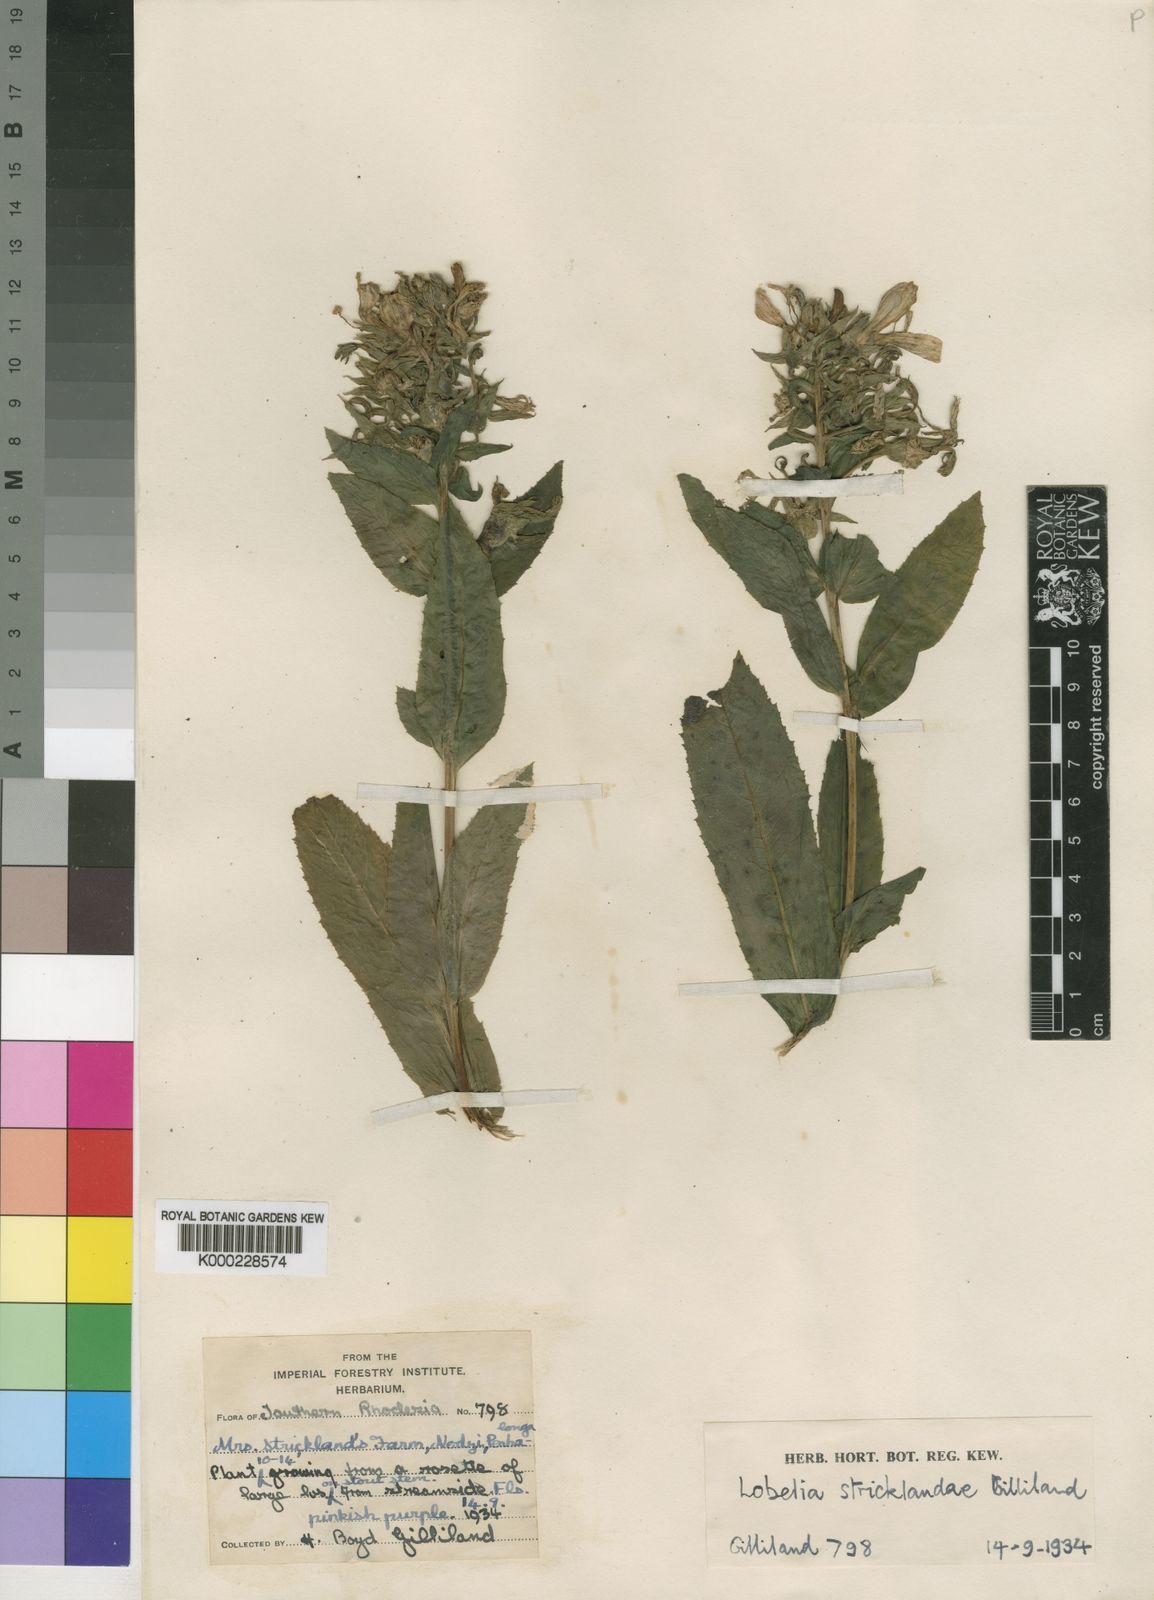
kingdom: Plantae
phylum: Tracheophyta
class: Magnoliopsida
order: Asterales
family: Campanulaceae
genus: Lobelia
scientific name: Lobelia stricklandiae
